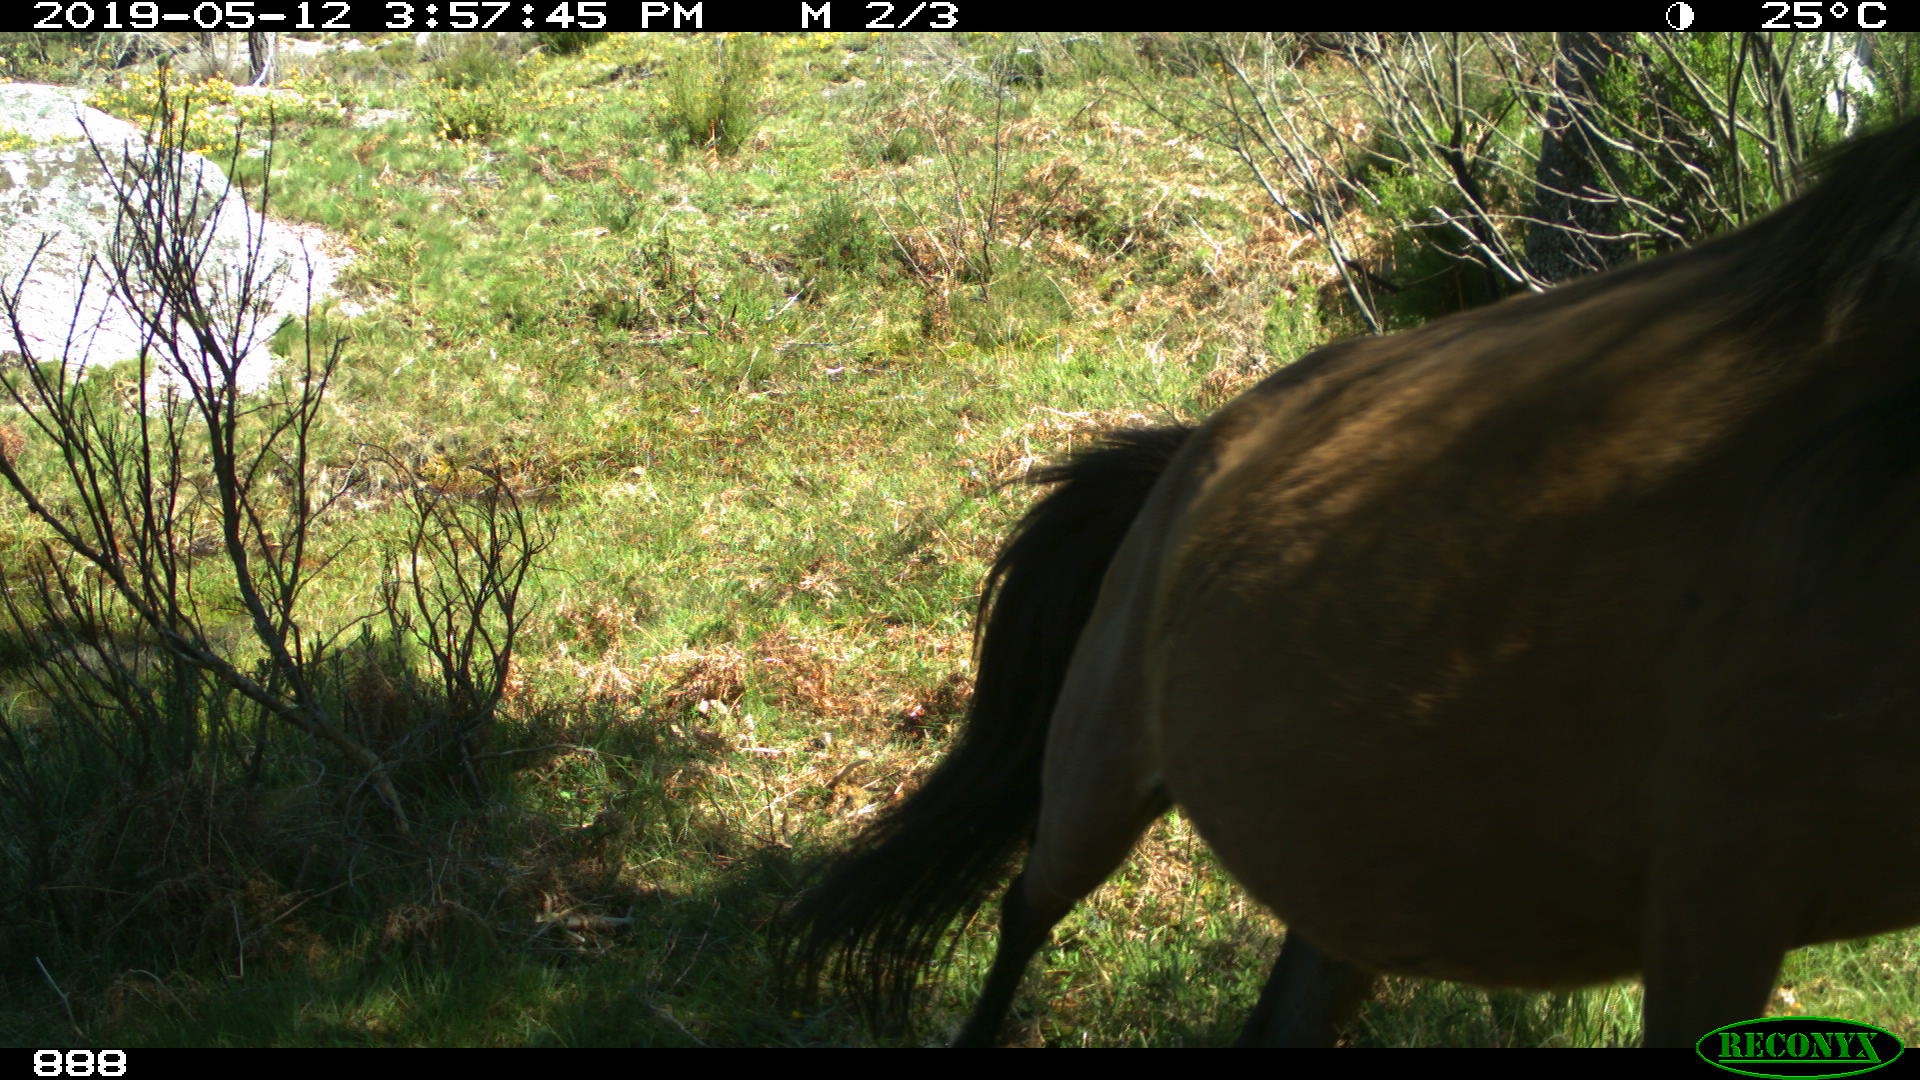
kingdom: Animalia
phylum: Chordata
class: Mammalia
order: Perissodactyla
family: Equidae
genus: Equus
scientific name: Equus caballus
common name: Horse
